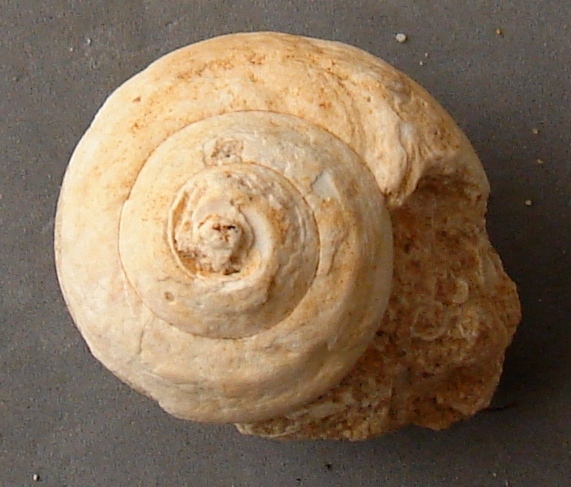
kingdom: Animalia
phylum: Mollusca
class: Gastropoda
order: Pleurotomariida
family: Trochotomidae
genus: Trochotoma
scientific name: Trochotoma vetusta
